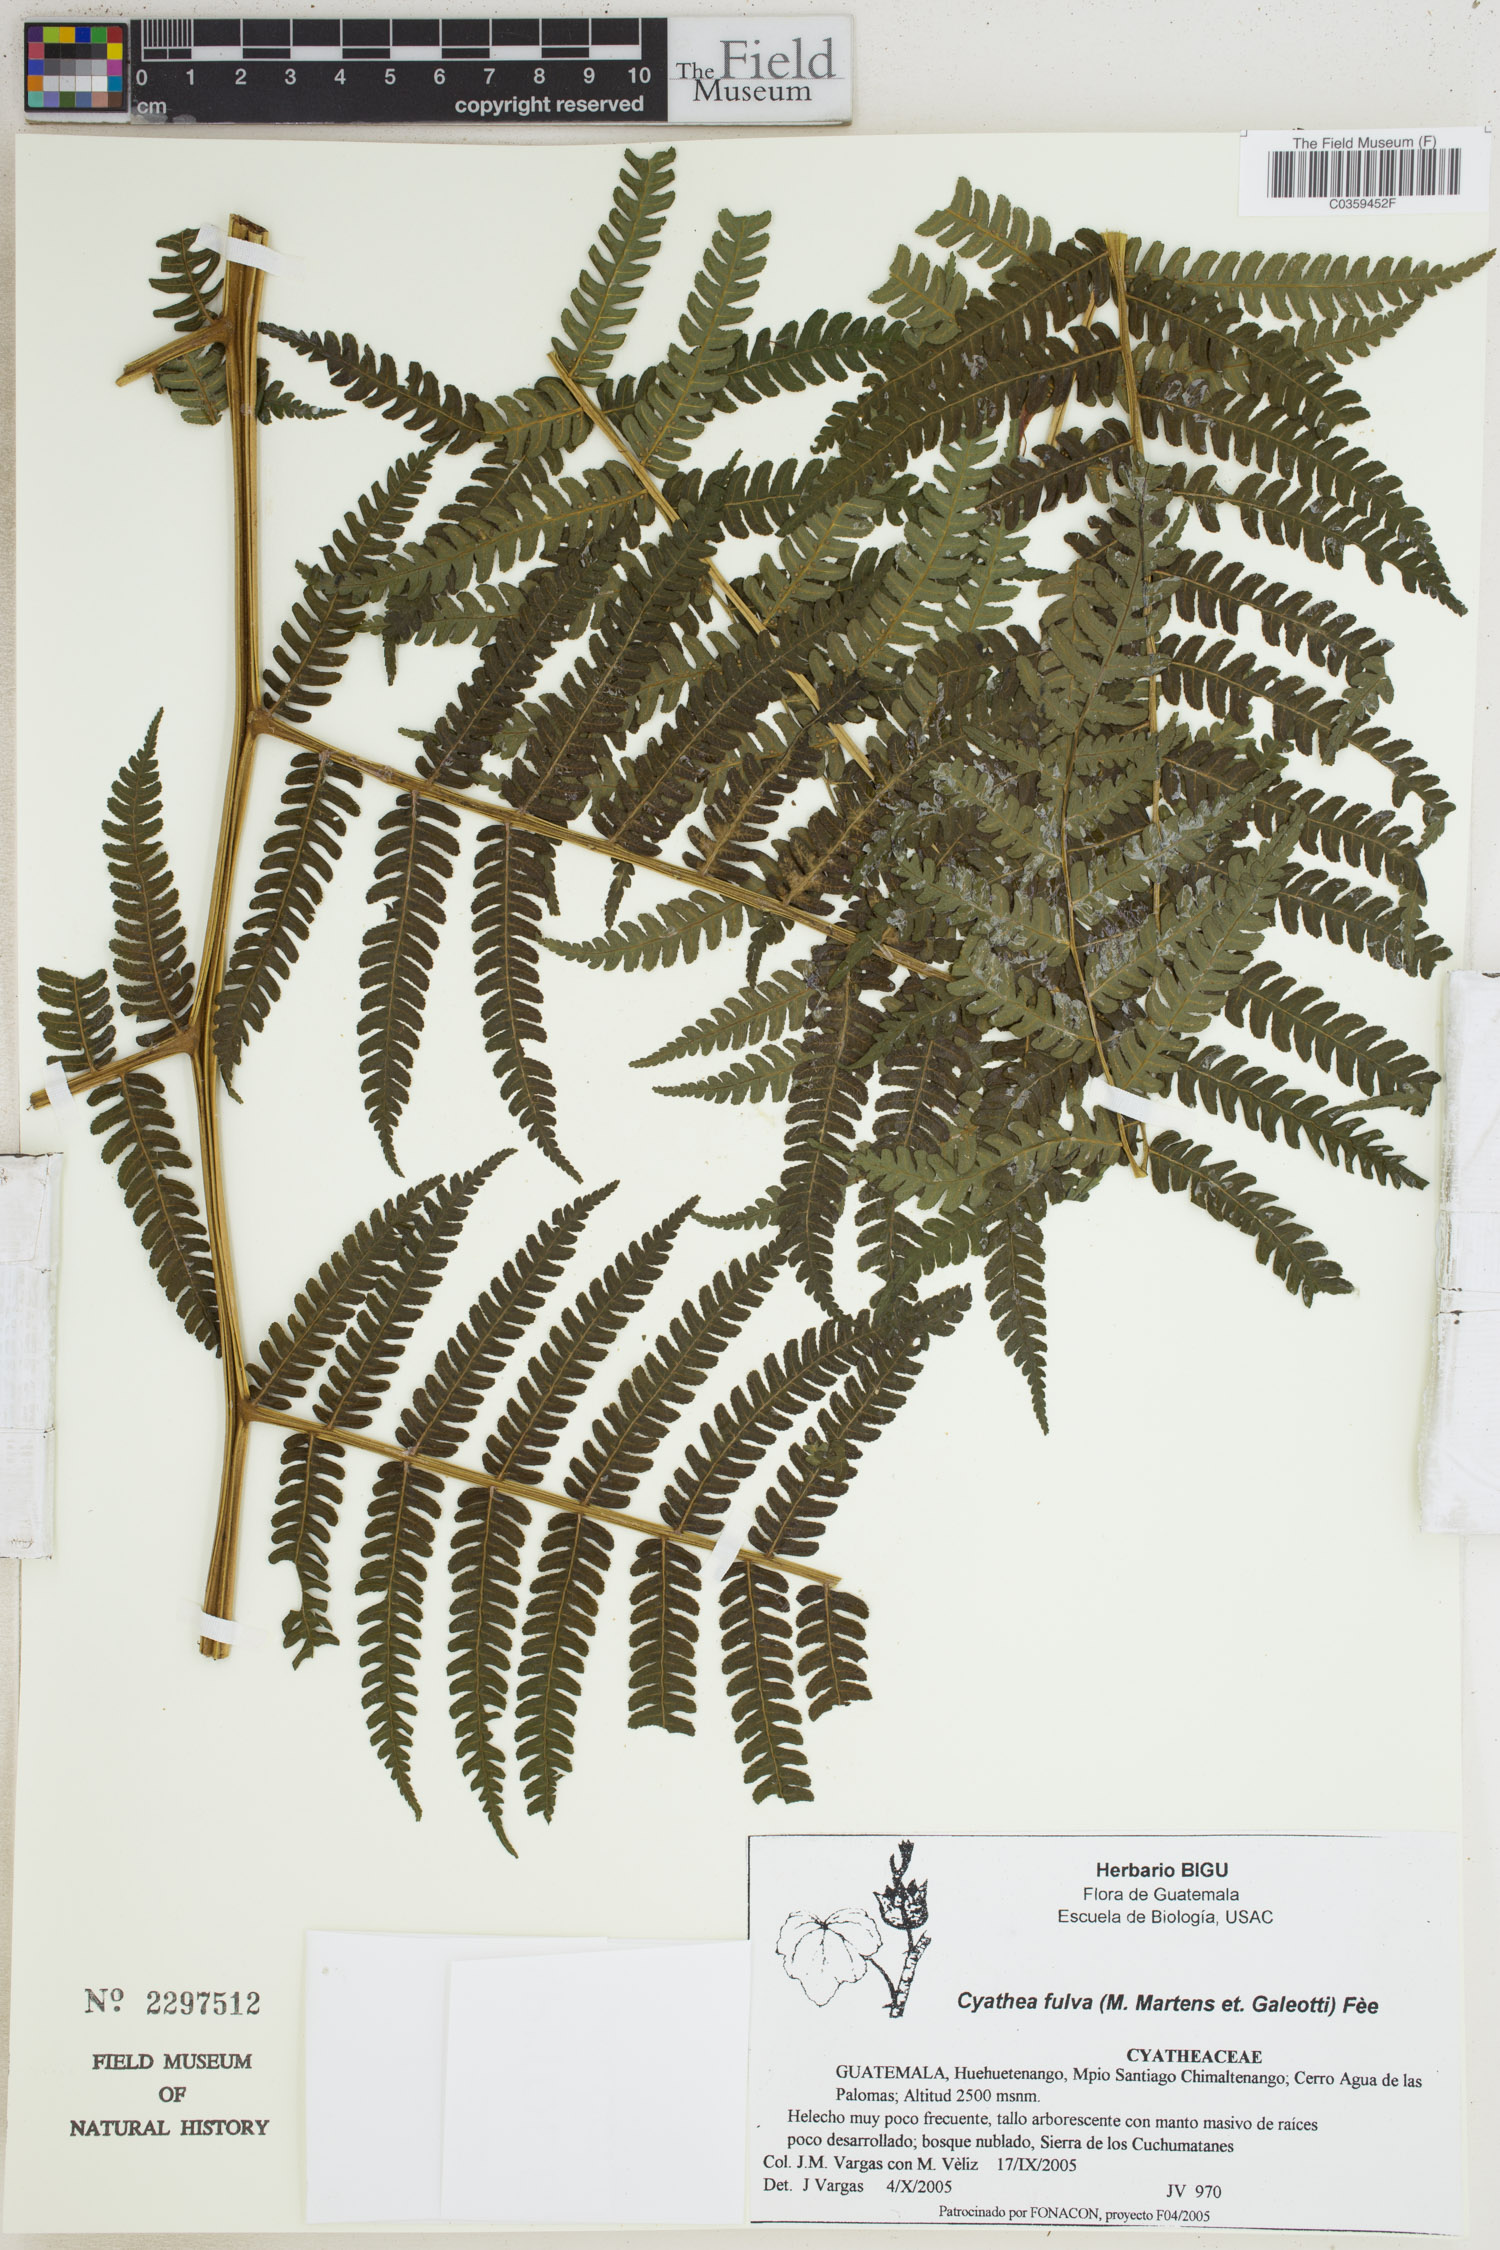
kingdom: Plantae
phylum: Tracheophyta
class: Polypodiopsida
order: Cyatheales
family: Cyatheaceae
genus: Cyathea
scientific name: Cyathea fulva
